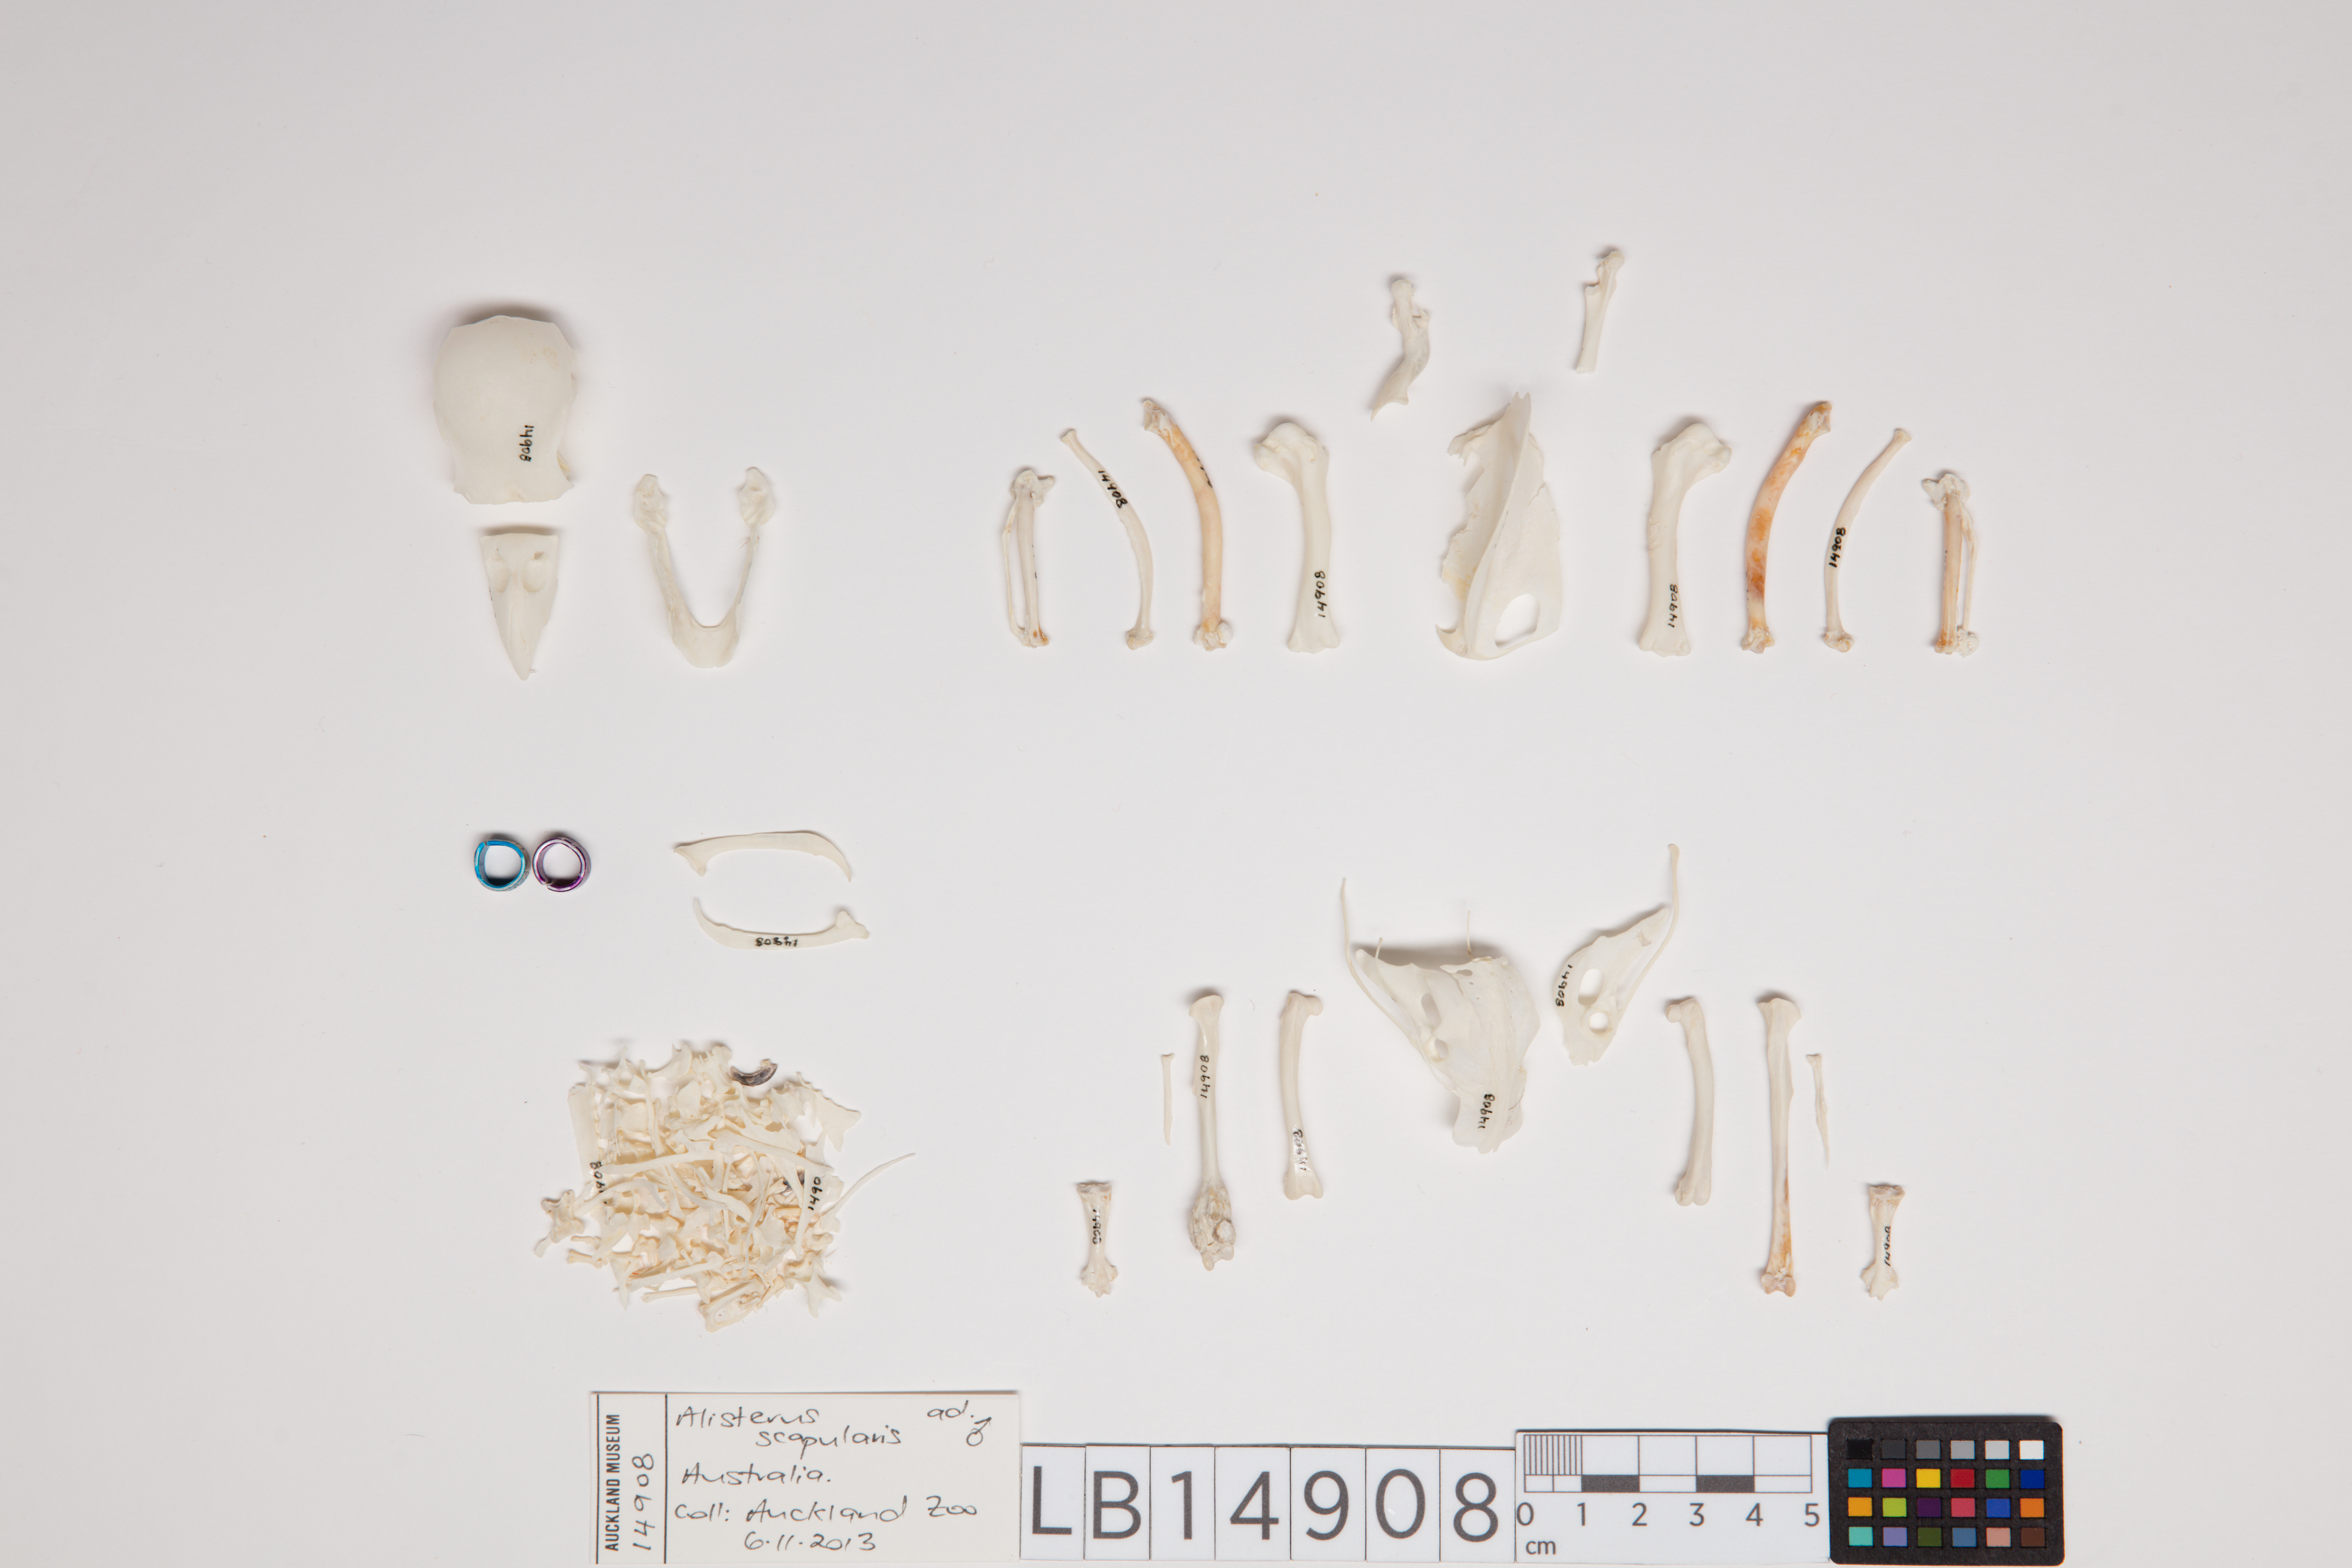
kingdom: Animalia
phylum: Chordata
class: Aves
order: Psittaciformes
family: Psittacidae
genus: Alisterus
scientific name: Alisterus scapularis
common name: Australian king parrot
